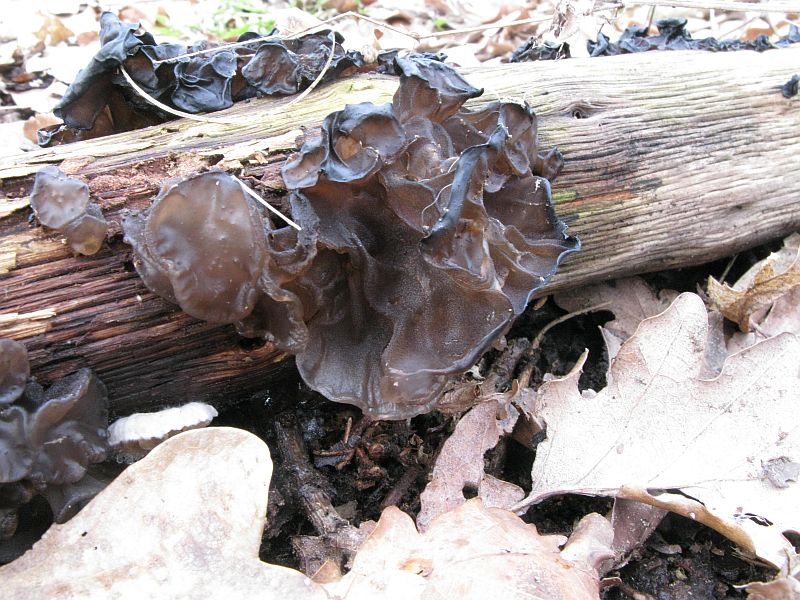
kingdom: Fungi
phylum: Basidiomycota
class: Agaricomycetes
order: Auriculariales
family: Auriculariaceae
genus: Exidia
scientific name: Exidia glandulosa
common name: ege-bævretop
